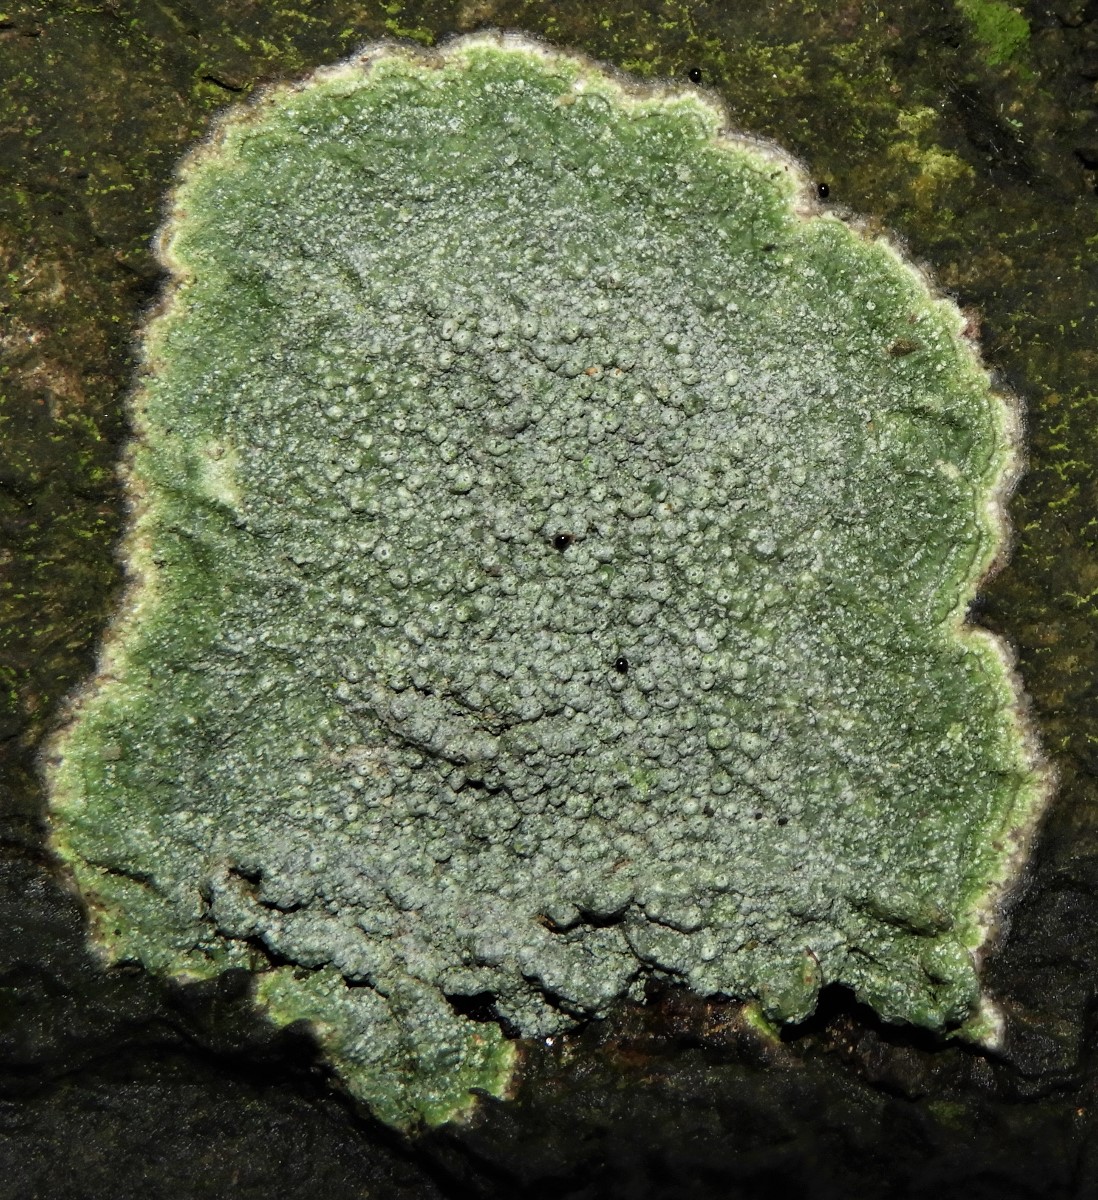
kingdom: Fungi
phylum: Ascomycota
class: Lecanoromycetes
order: Pertusariales
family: Pertusariaceae
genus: Pertusaria
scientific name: Pertusaria pertusa
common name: almindelig prikvortelav
